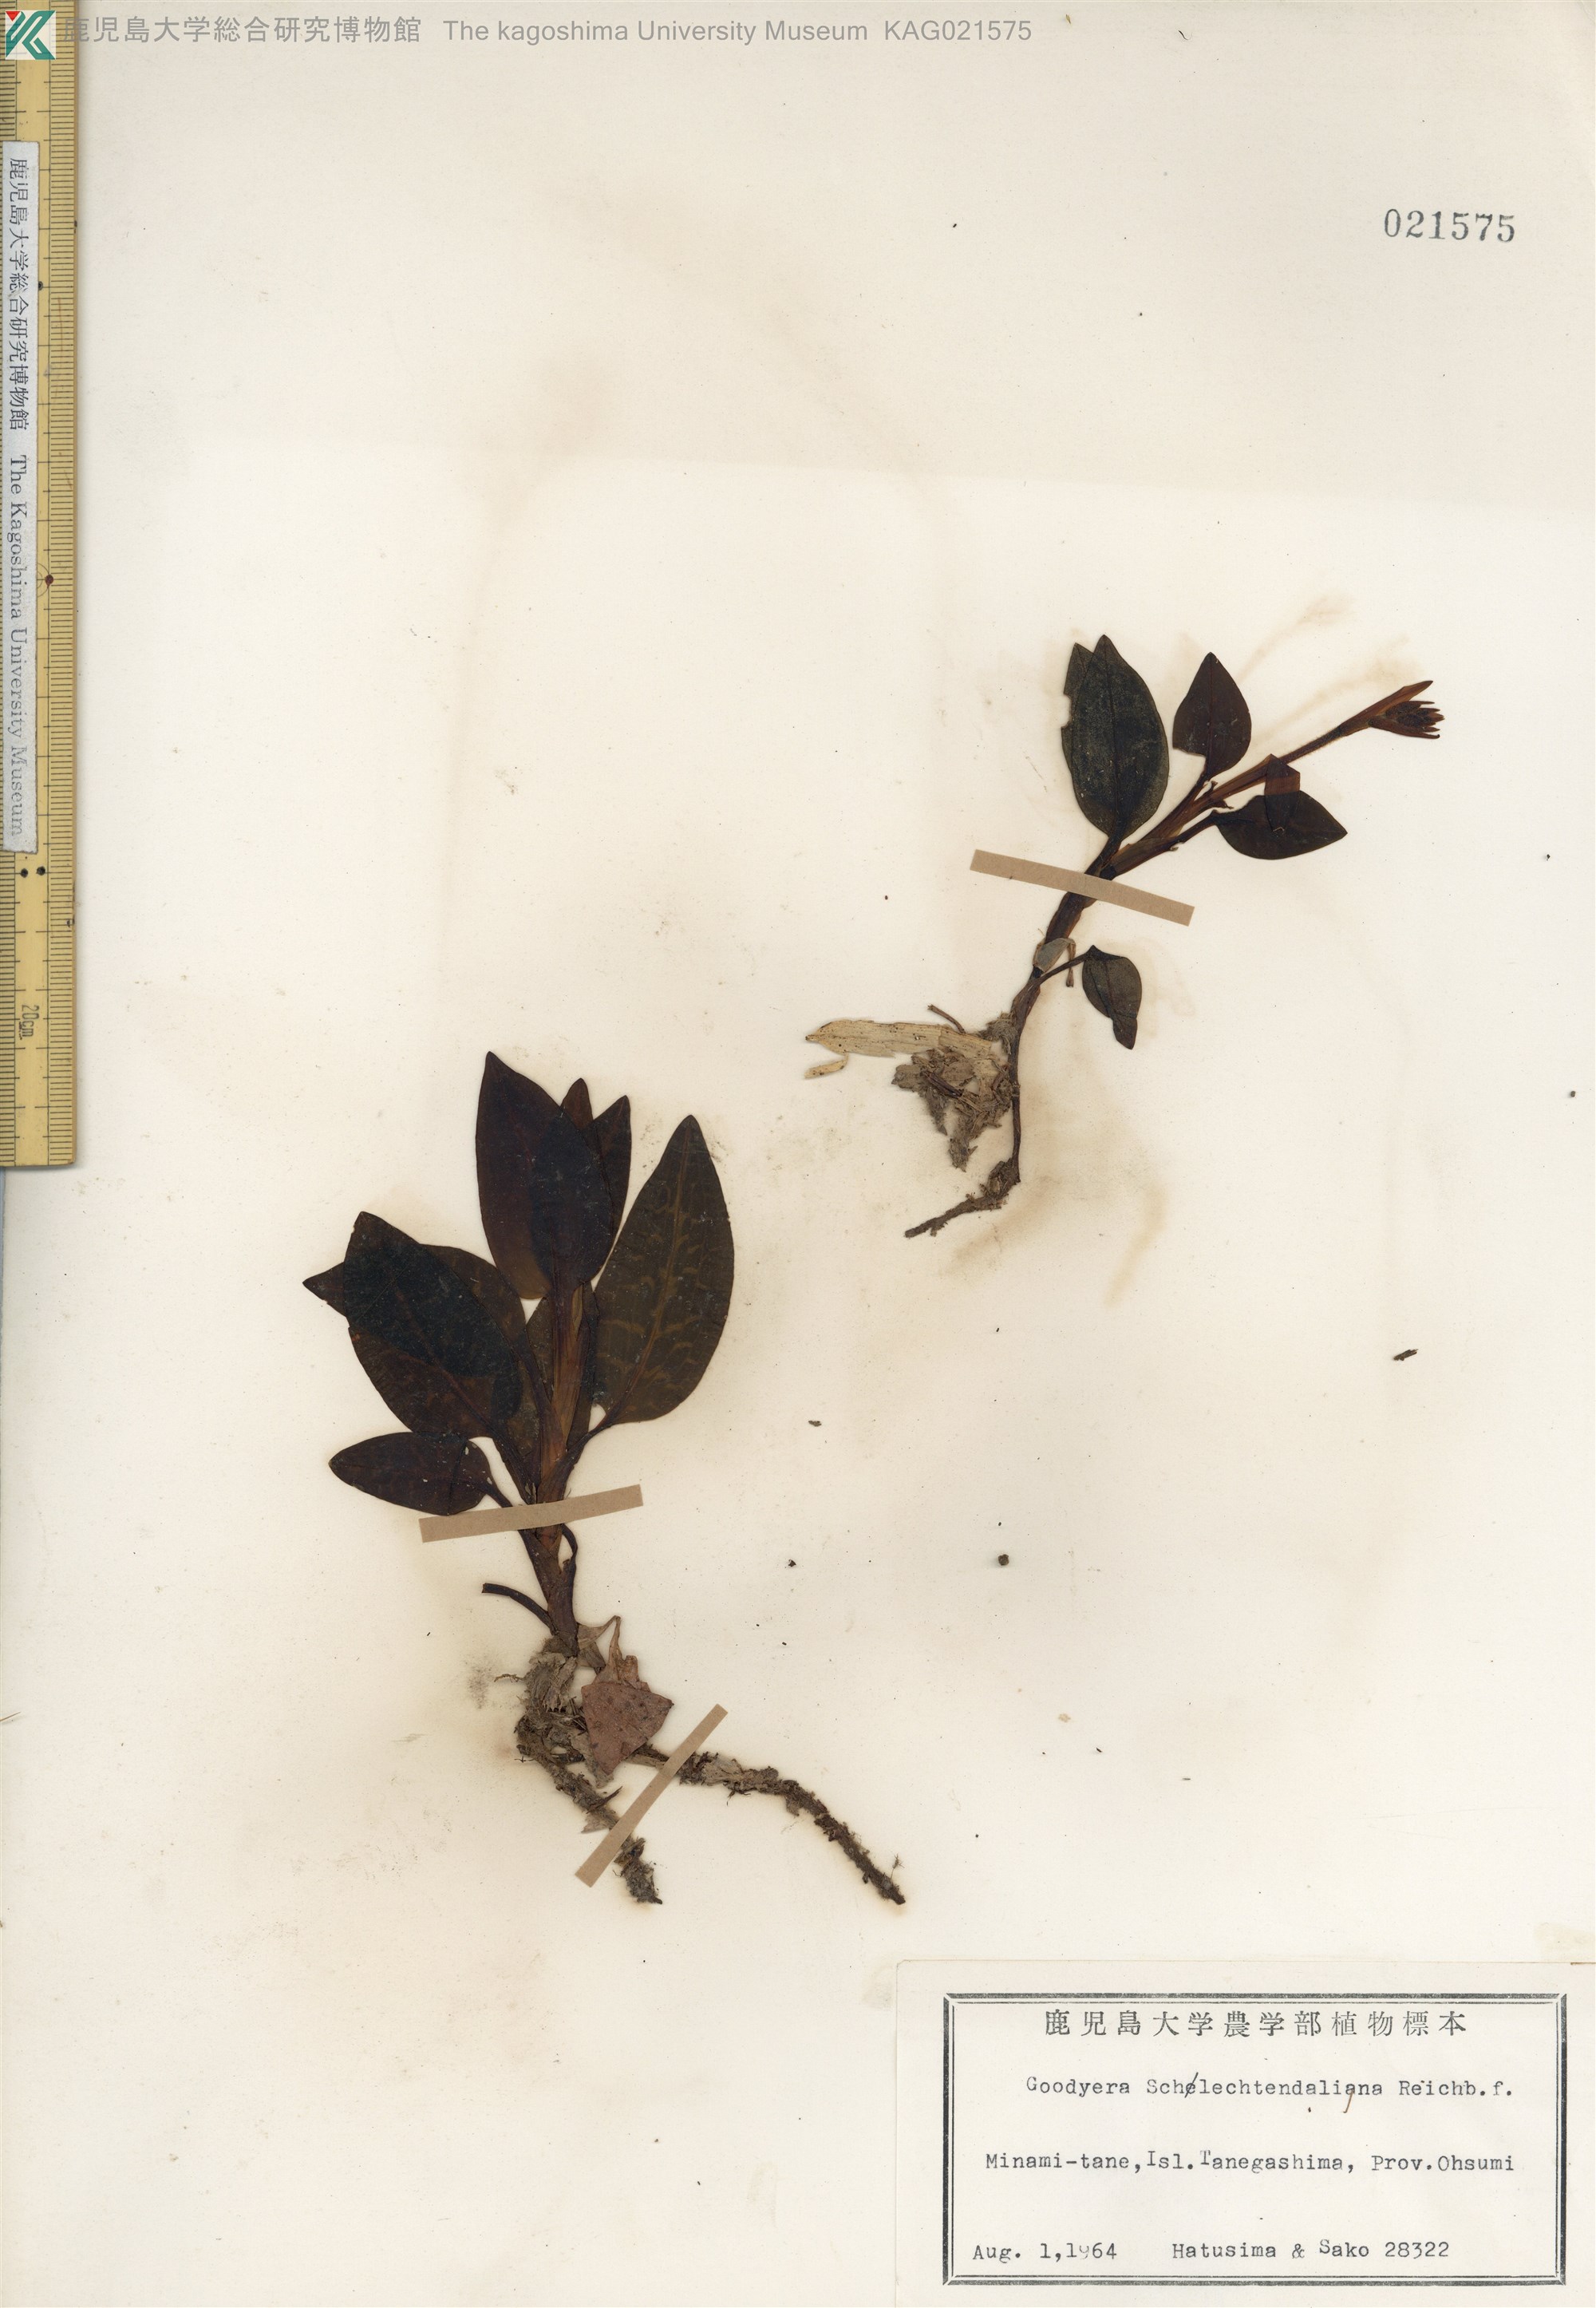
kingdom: Plantae
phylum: Tracheophyta
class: Liliopsida
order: Asparagales
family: Orchidaceae
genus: Goodyera
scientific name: Goodyera schlechtendaliana
